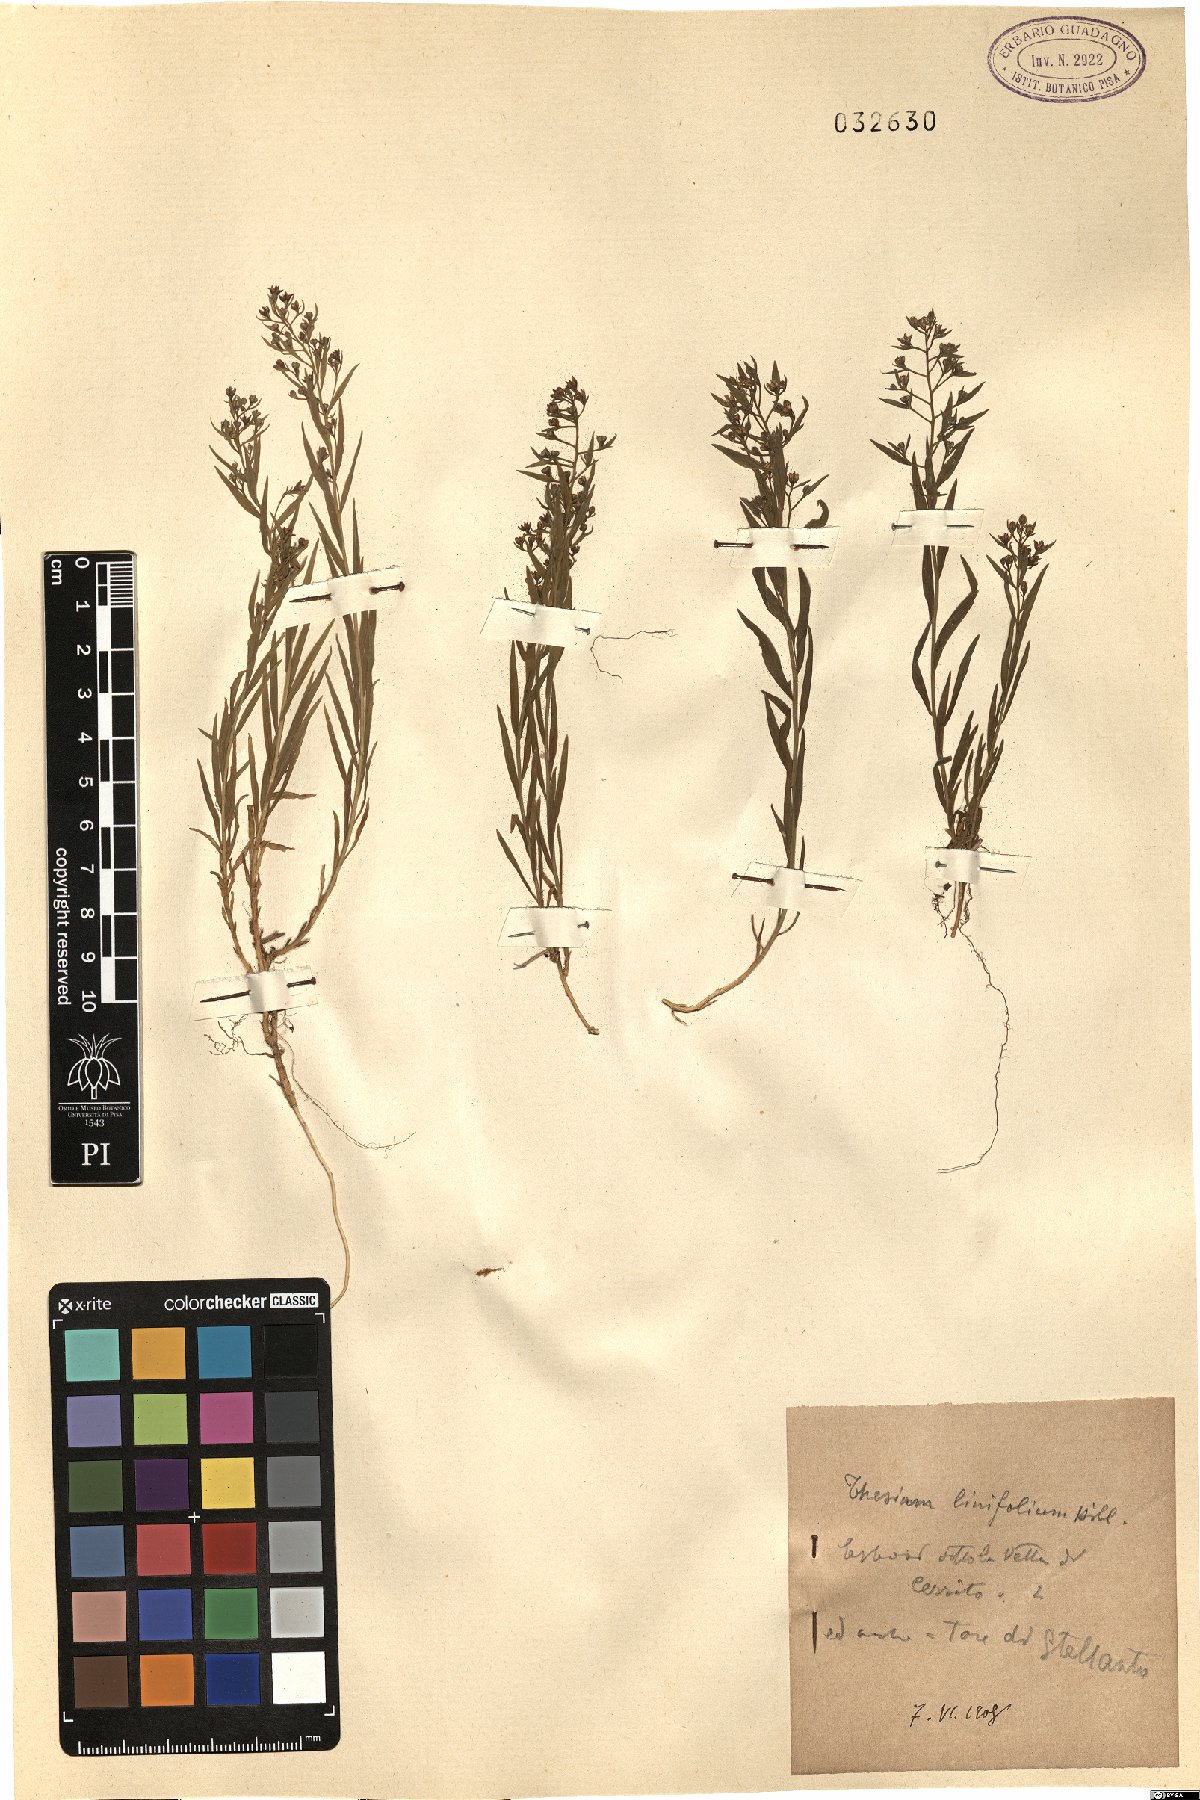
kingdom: Plantae
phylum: Tracheophyta
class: Magnoliopsida
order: Santalales
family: Thesiaceae
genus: Thesium
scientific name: Thesium linophyllon
